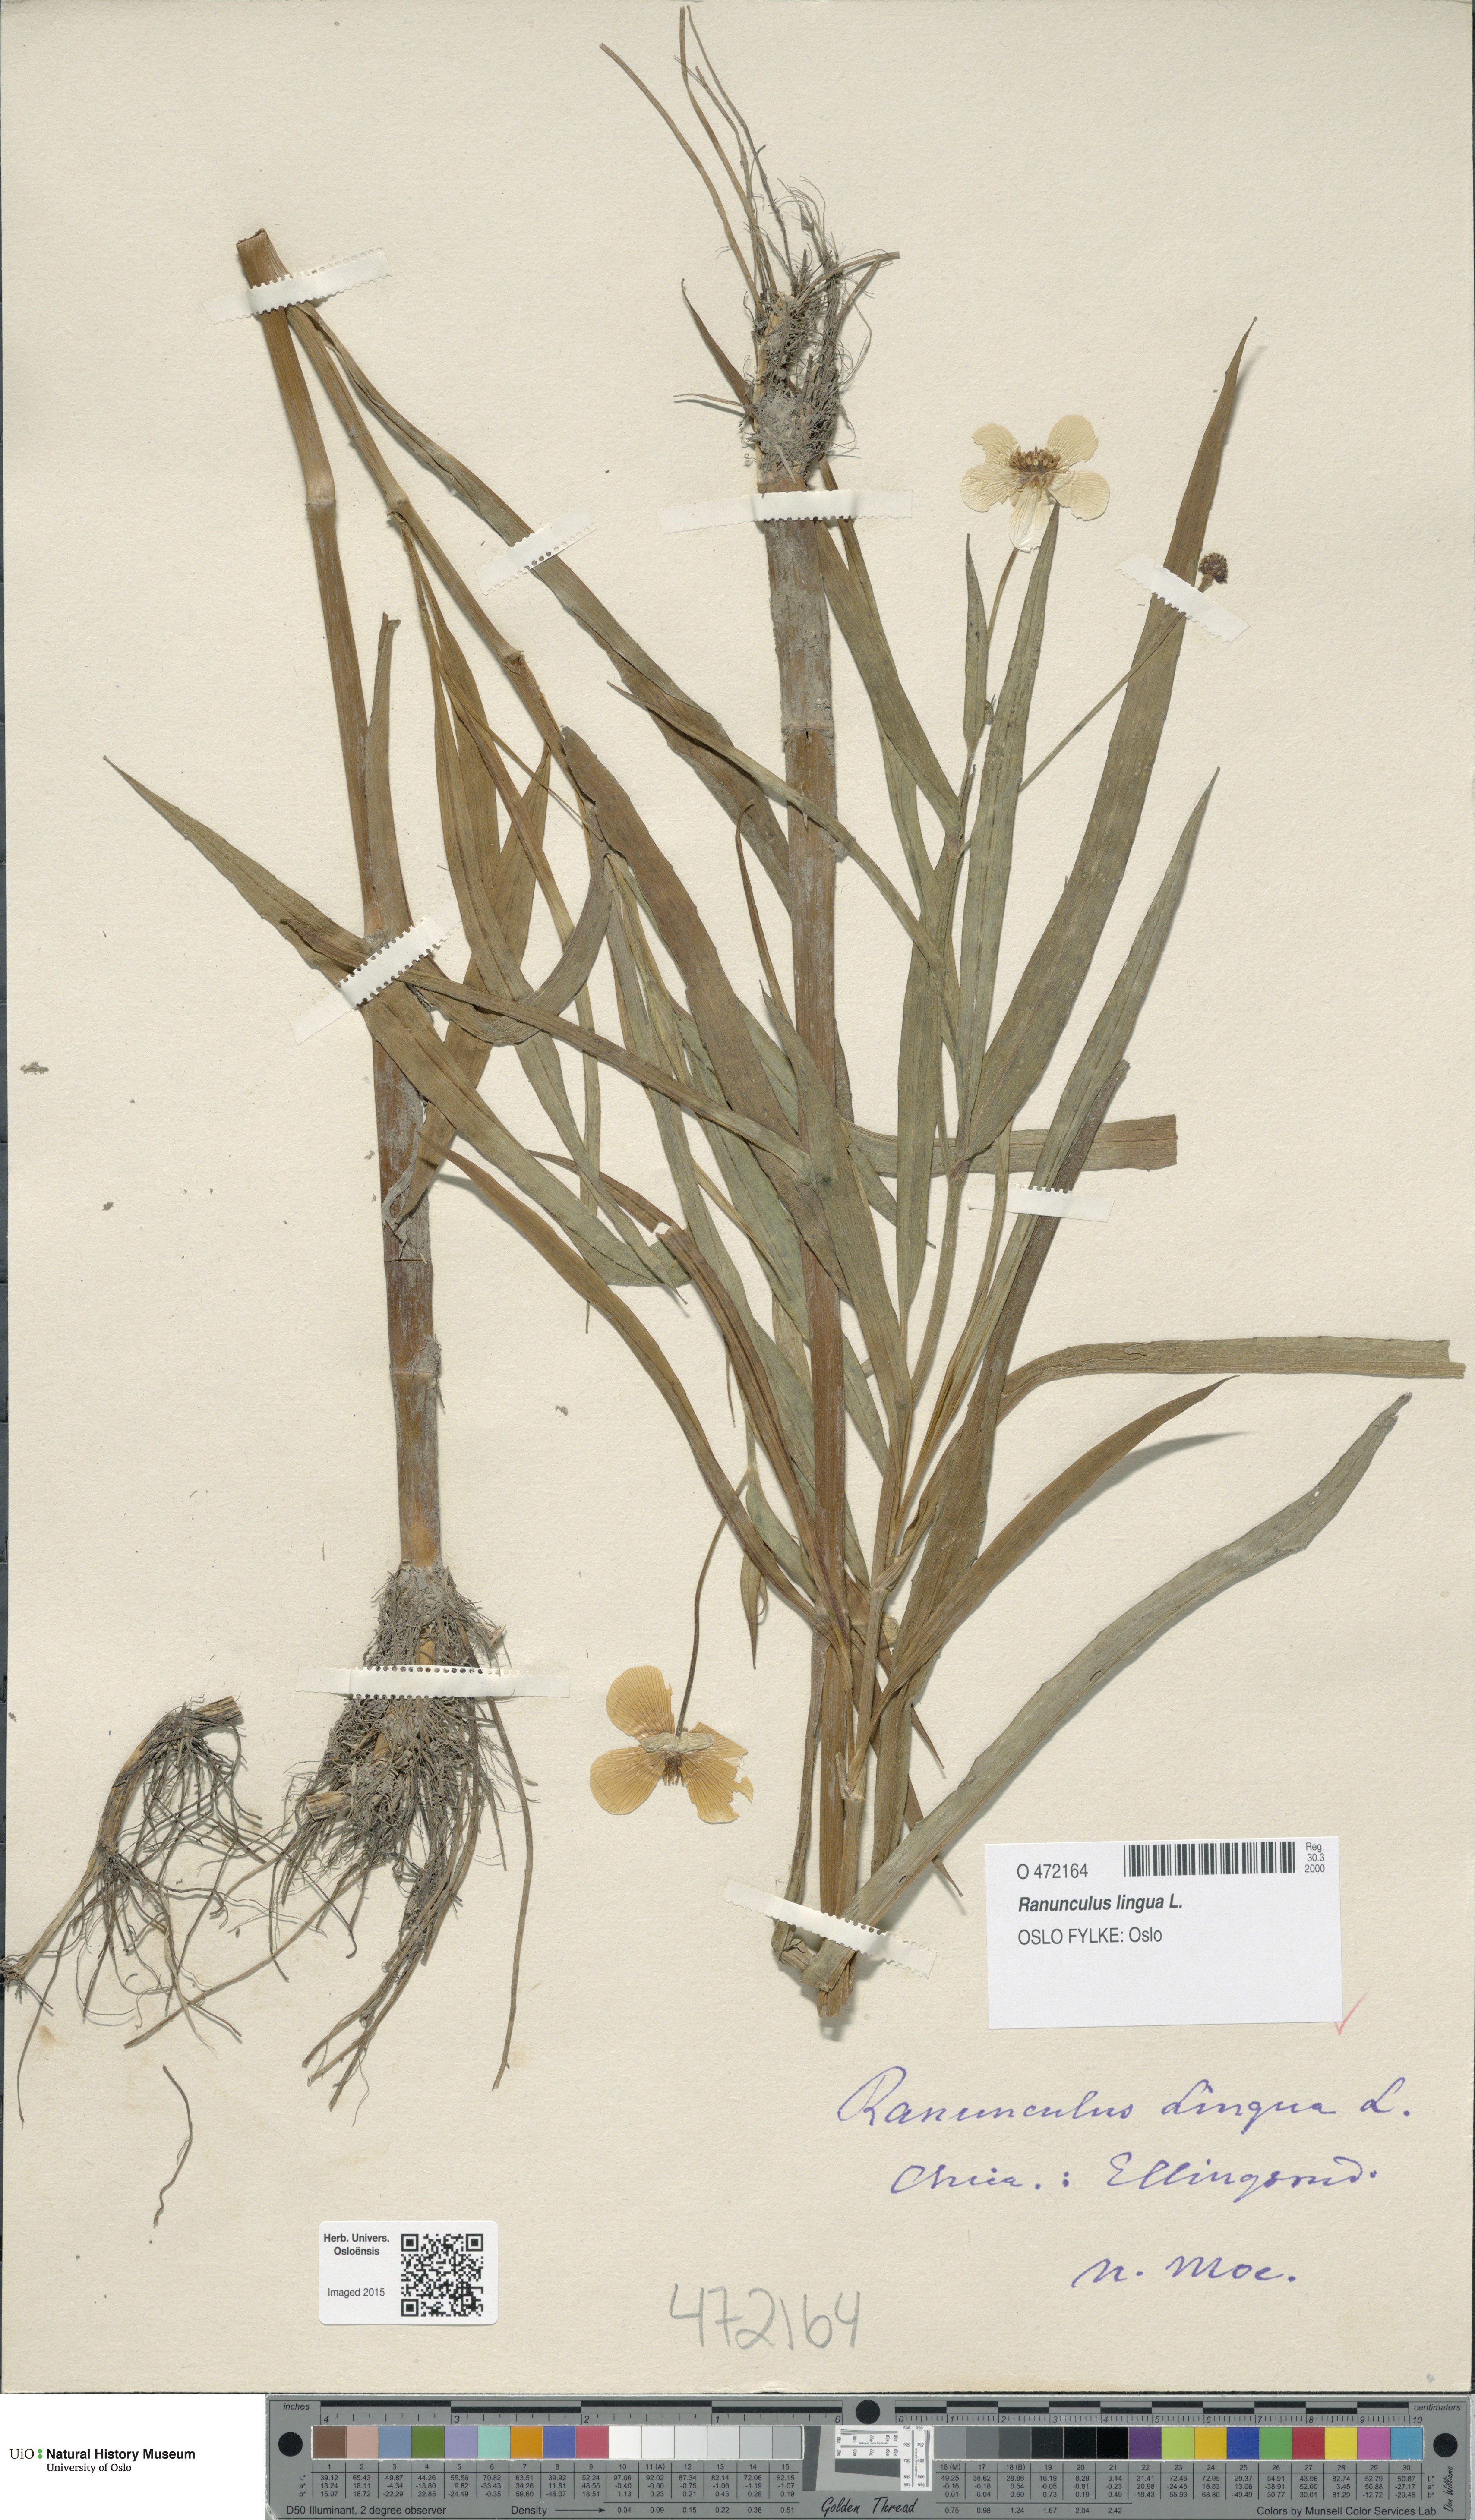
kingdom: Plantae
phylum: Tracheophyta
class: Magnoliopsida
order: Ranunculales
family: Ranunculaceae
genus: Ranunculus
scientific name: Ranunculus lingua
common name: Greater spearwort
